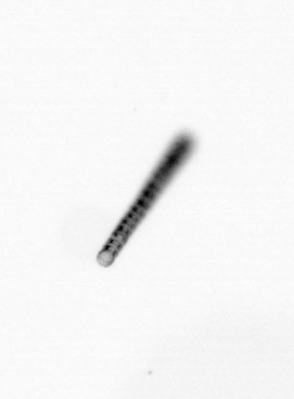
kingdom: Chromista
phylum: Ochrophyta
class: Bacillariophyceae
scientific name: Bacillariophyceae
